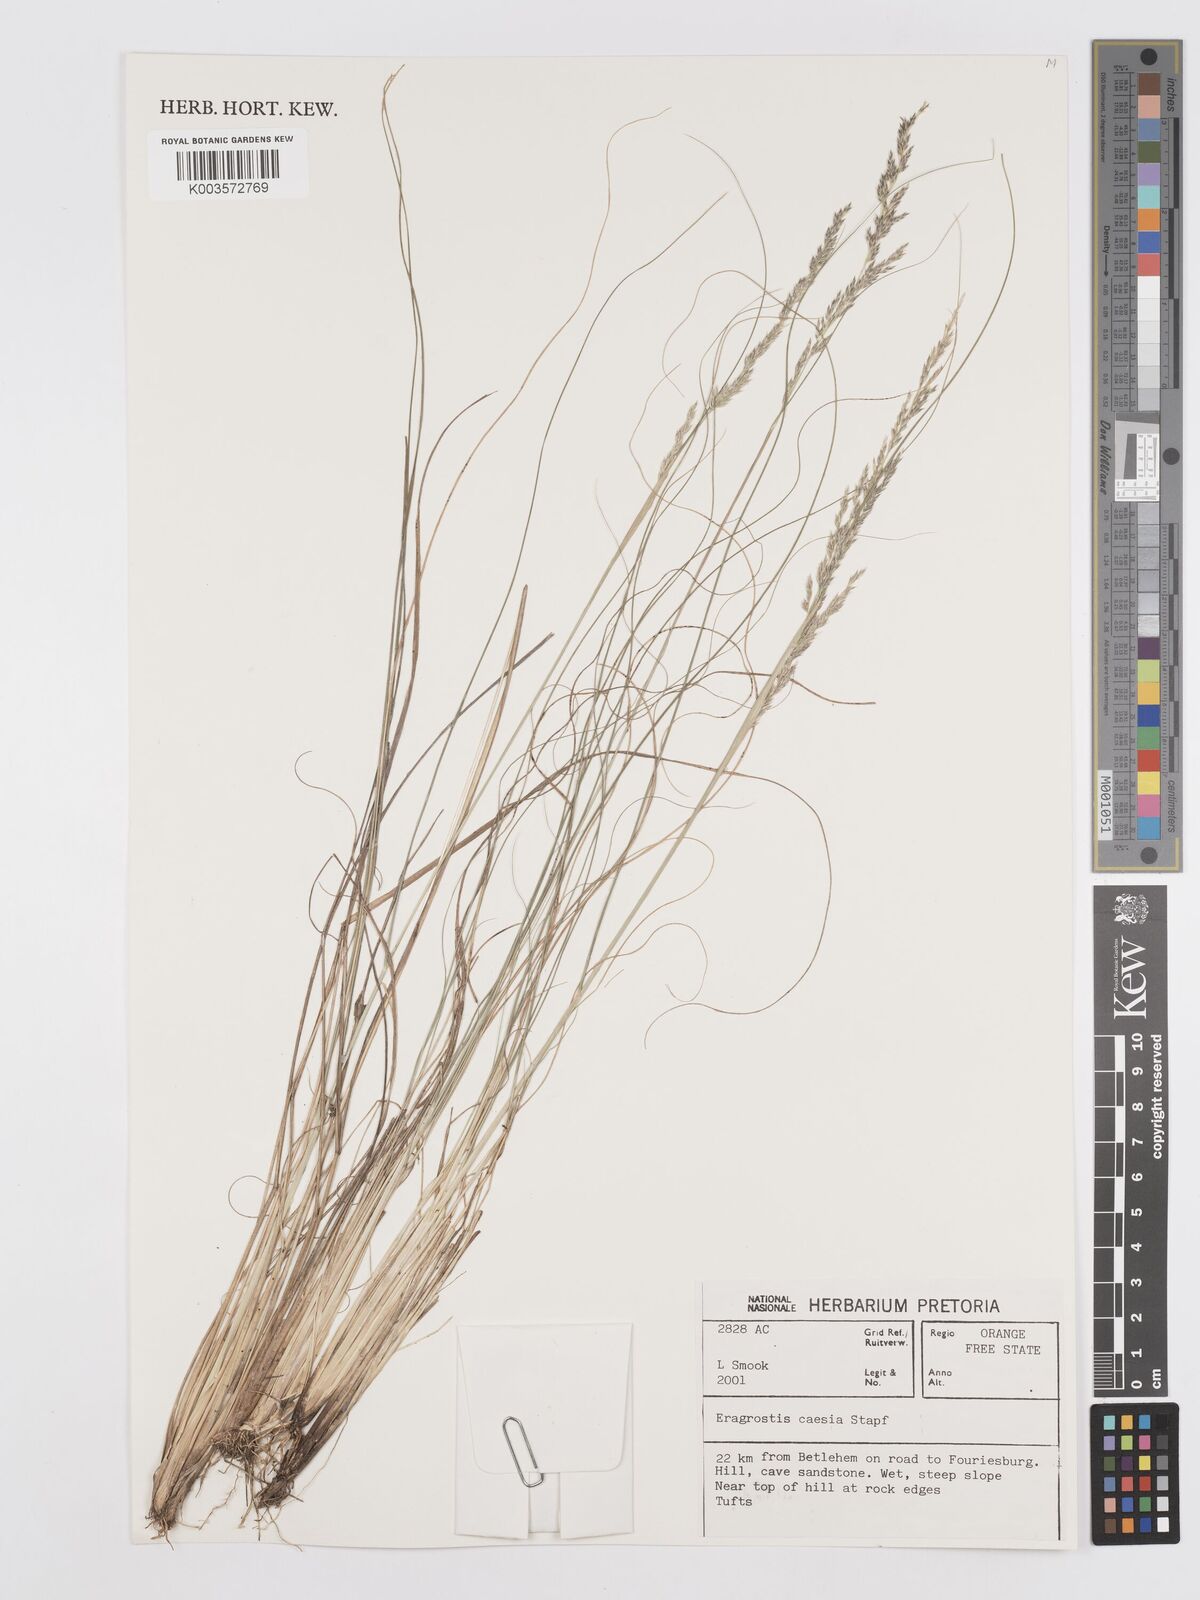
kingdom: Plantae
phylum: Tracheophyta
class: Liliopsida
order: Poales
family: Poaceae
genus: Eragrostis
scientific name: Eragrostis caesia
